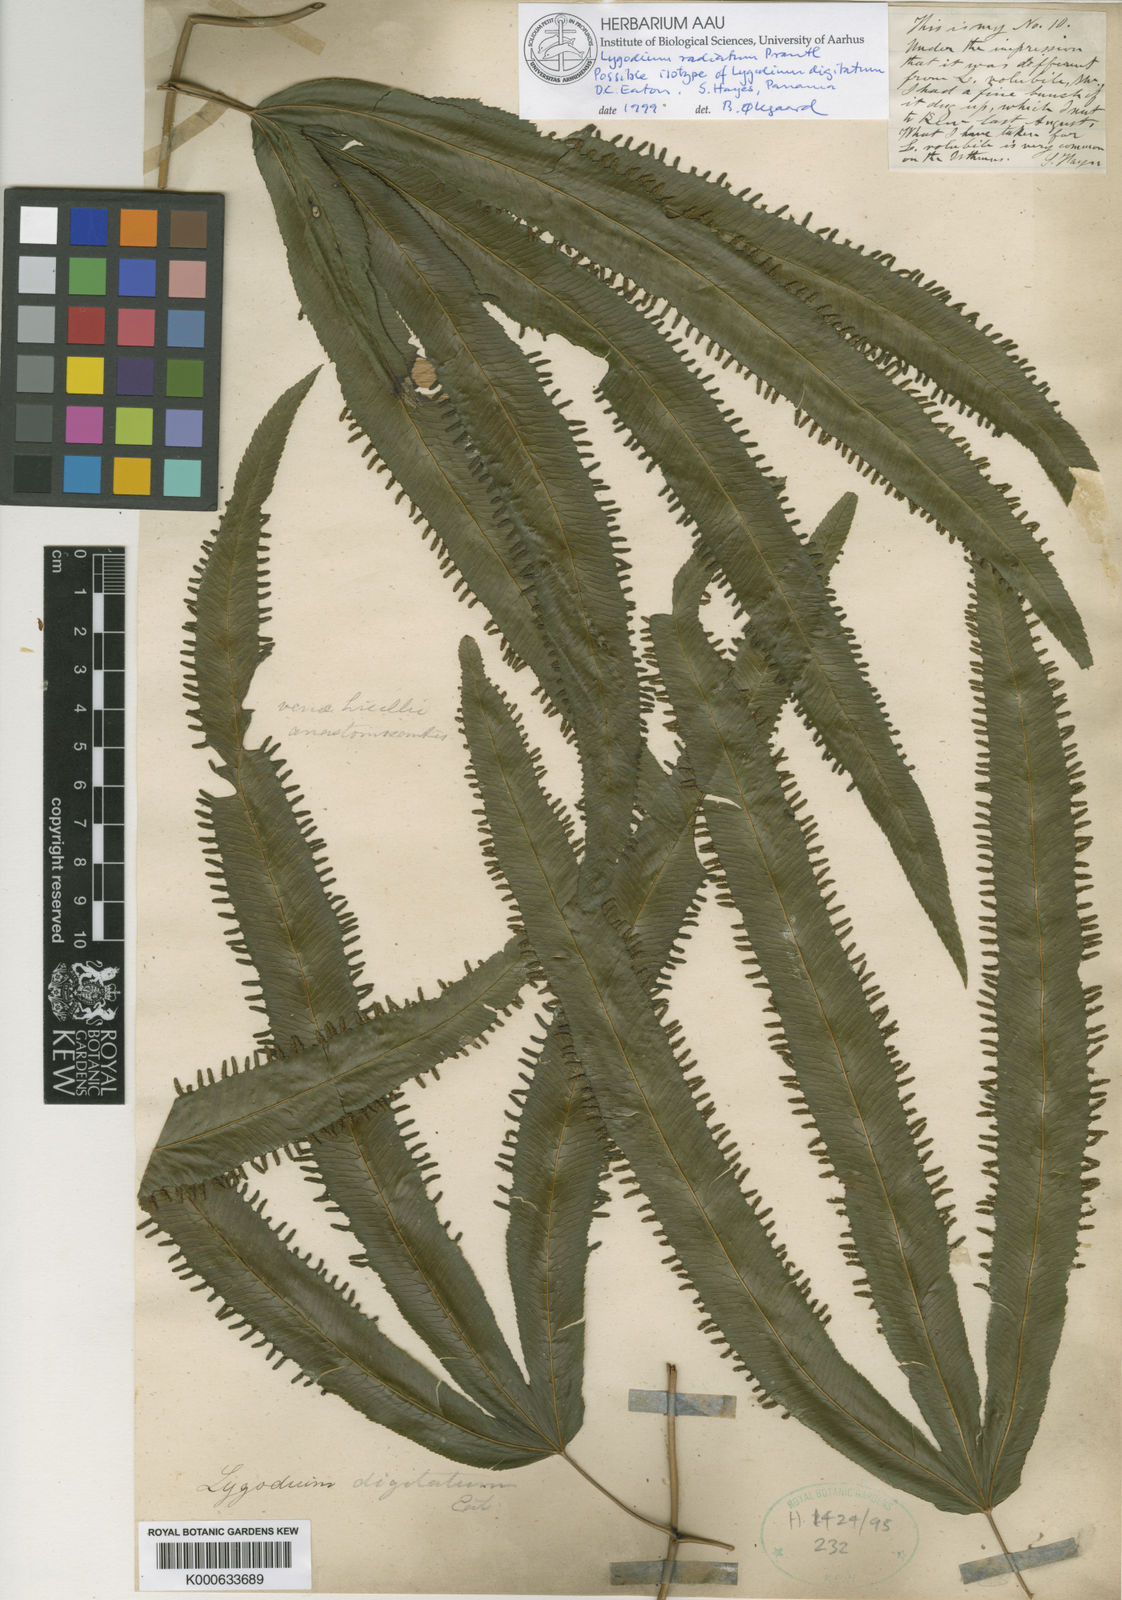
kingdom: Plantae
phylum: Tracheophyta
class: Polypodiopsida
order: Schizaeales
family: Lygodiaceae
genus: Lygodium
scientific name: Lygodium radiatum
